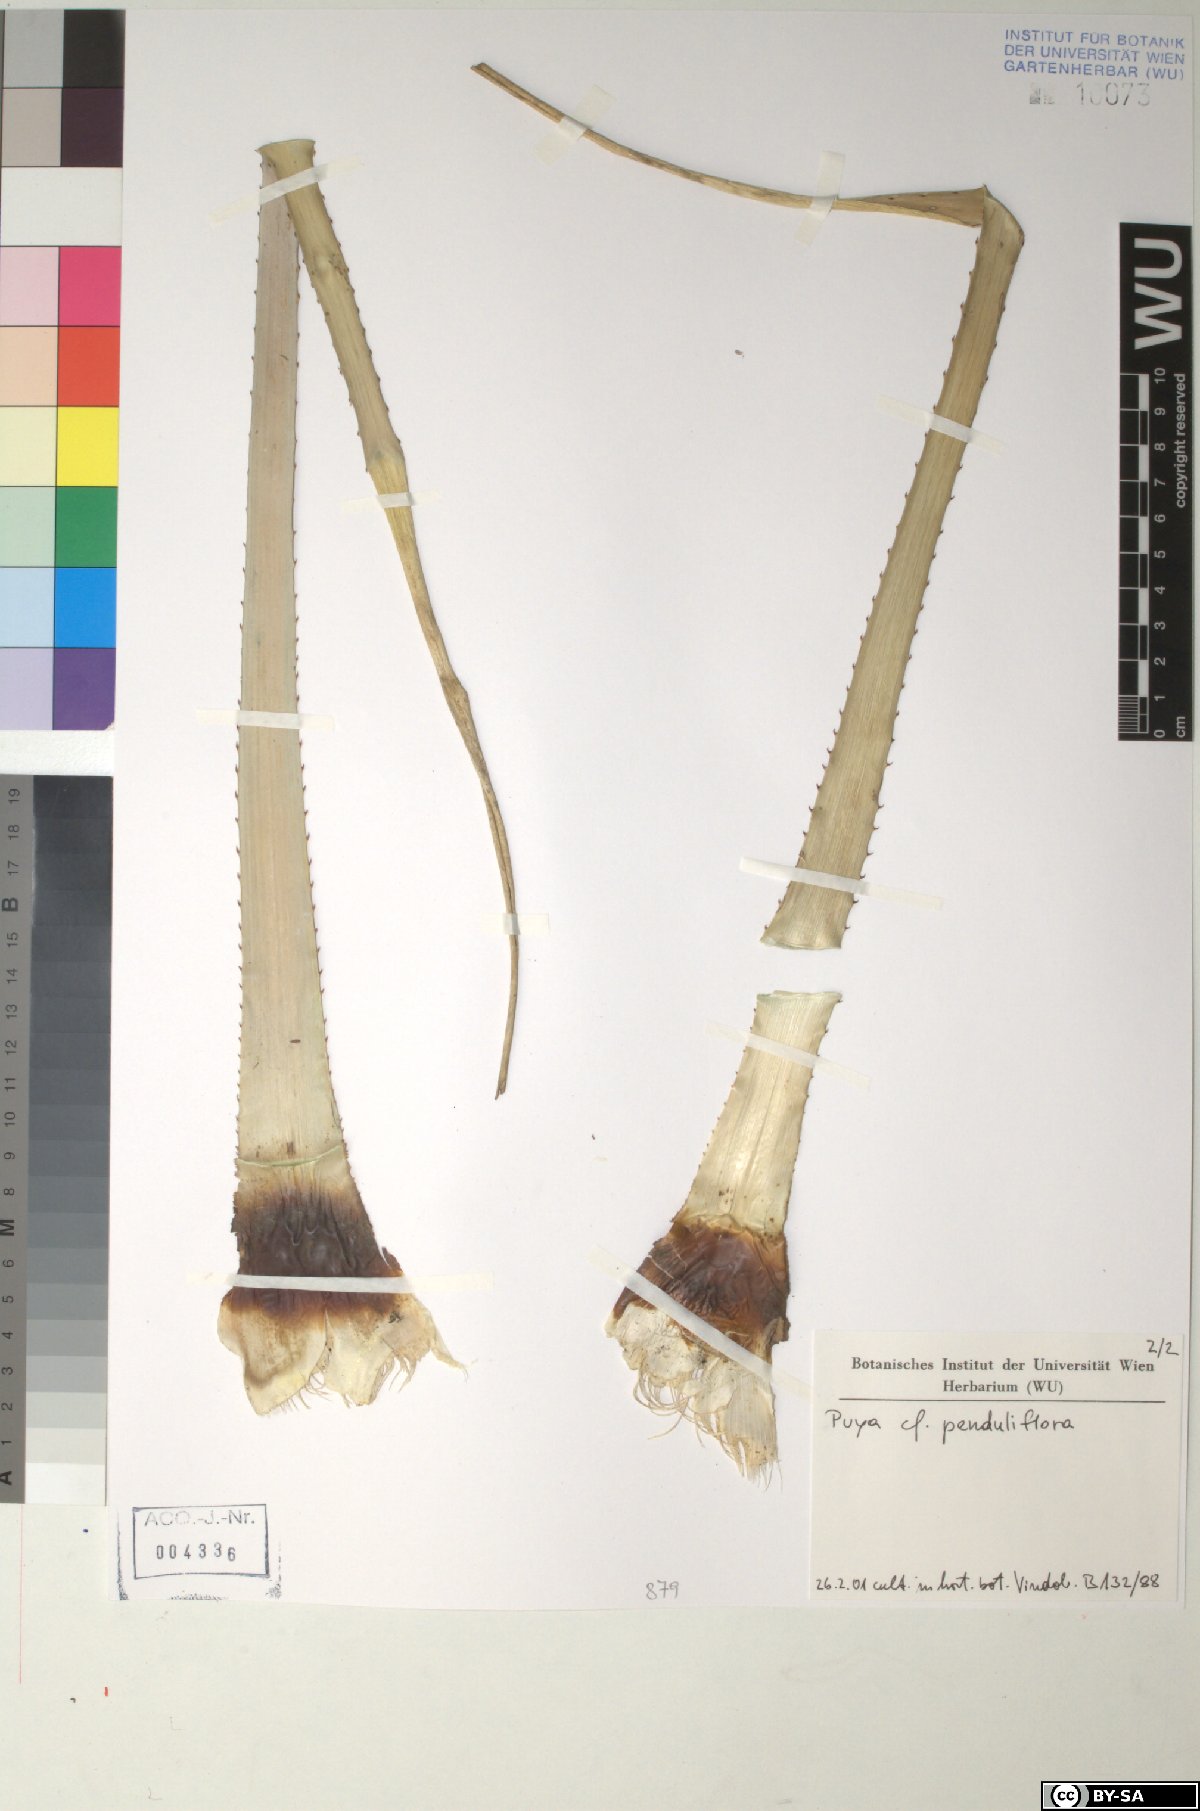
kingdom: Plantae
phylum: Tracheophyta
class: Liliopsida
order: Poales
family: Bromeliaceae
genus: Puya
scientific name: Puya penduliflora
